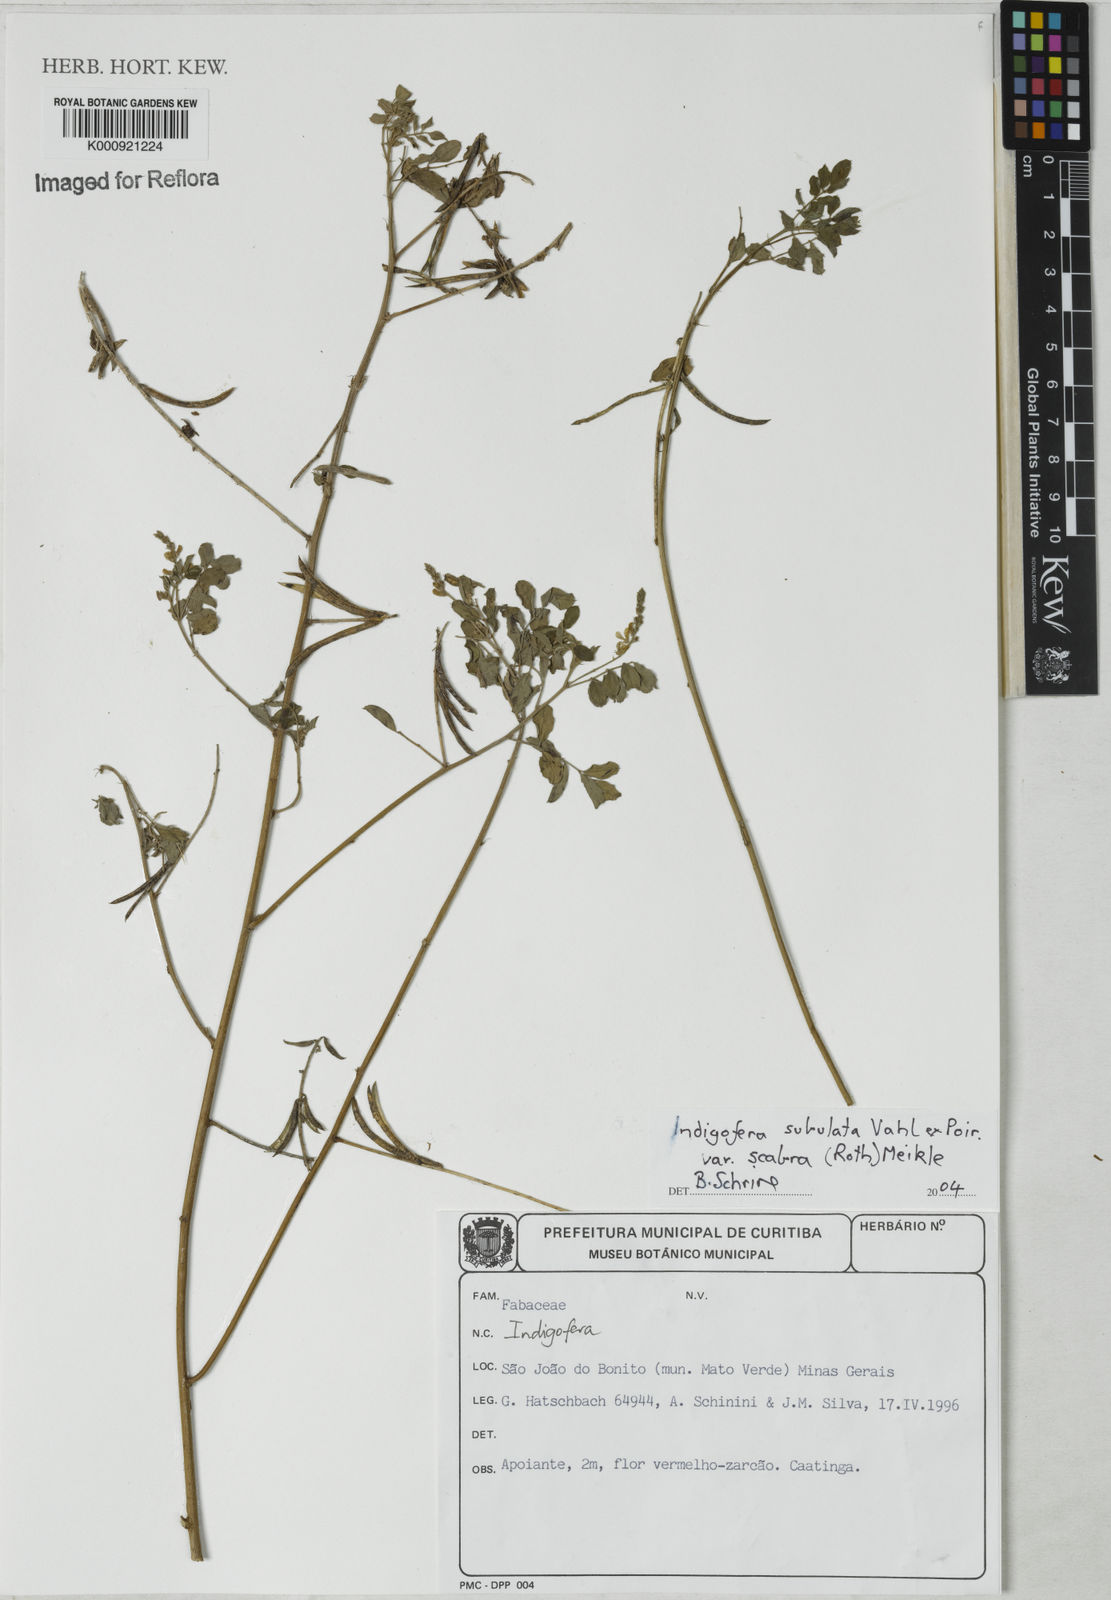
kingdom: Plantae
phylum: Tracheophyta
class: Magnoliopsida
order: Fabales
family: Fabaceae
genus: Indigofera
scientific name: Indigofera subulata
